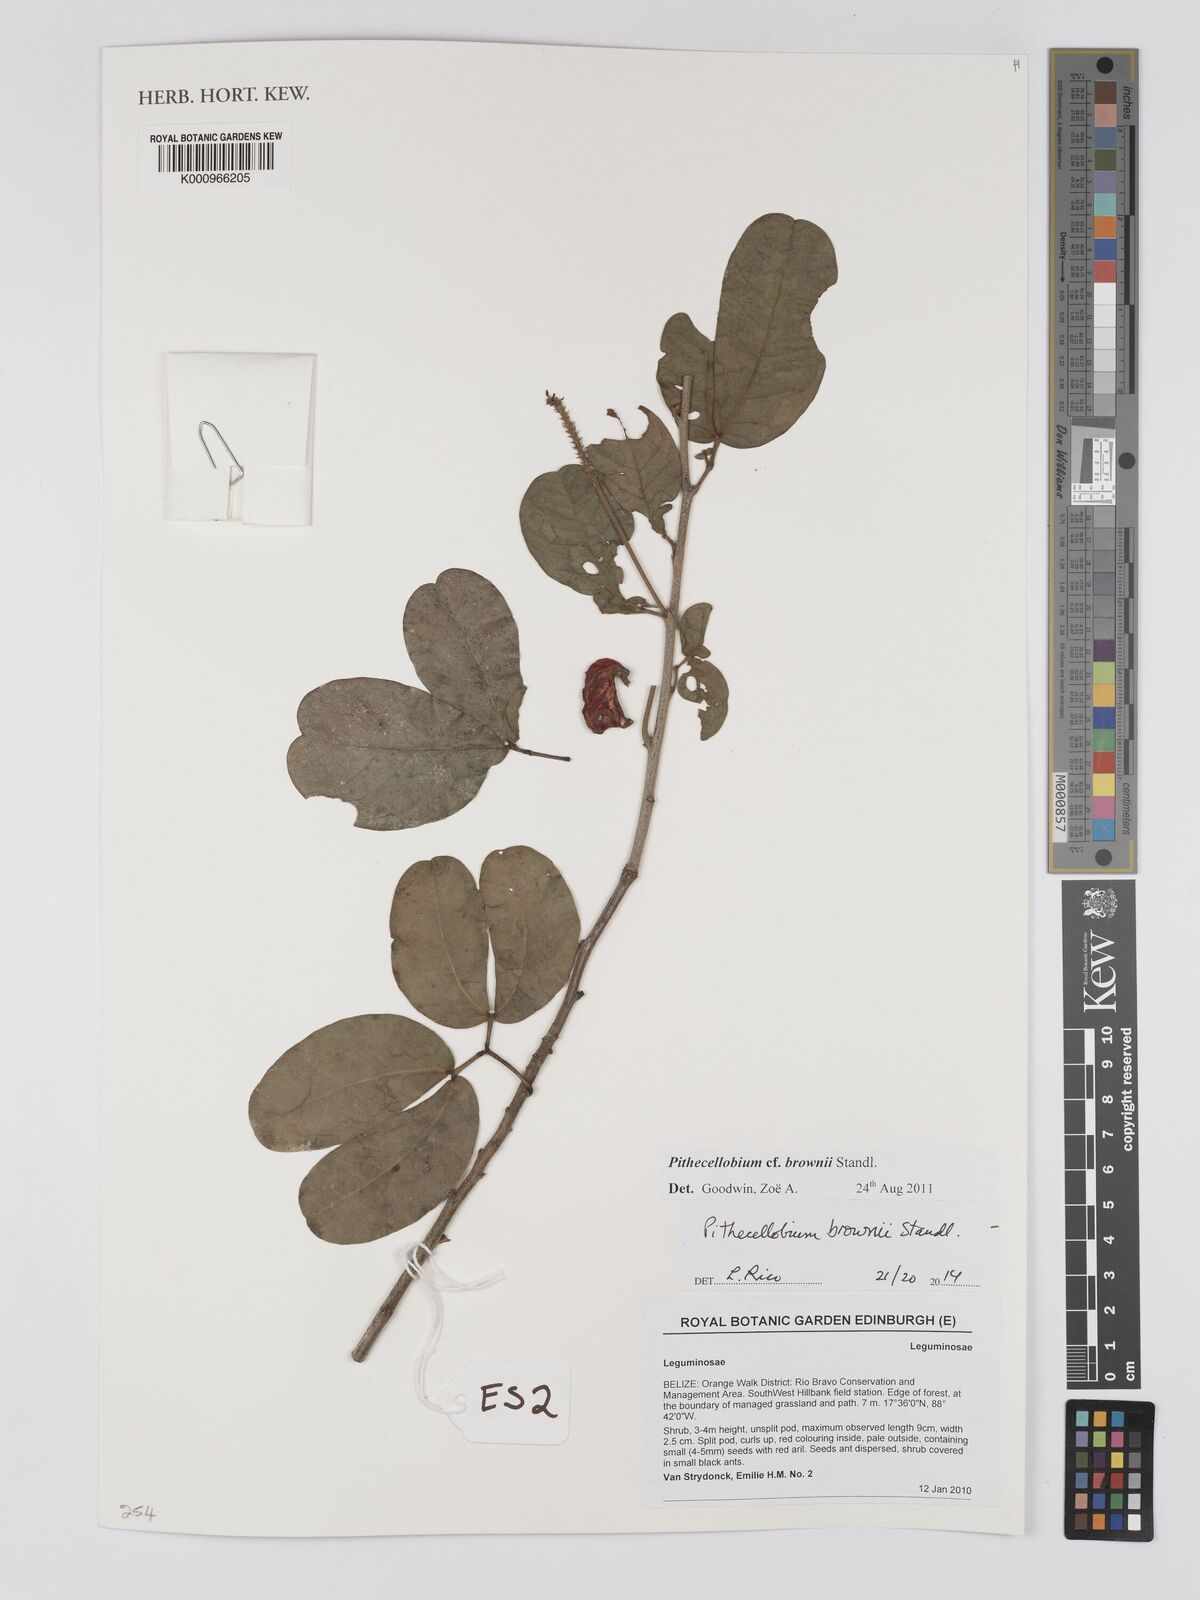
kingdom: Plantae
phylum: Tracheophyta
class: Magnoliopsida
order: Fabales
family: Fabaceae
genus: Pithecellobium
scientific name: Pithecellobium winzerlingii
